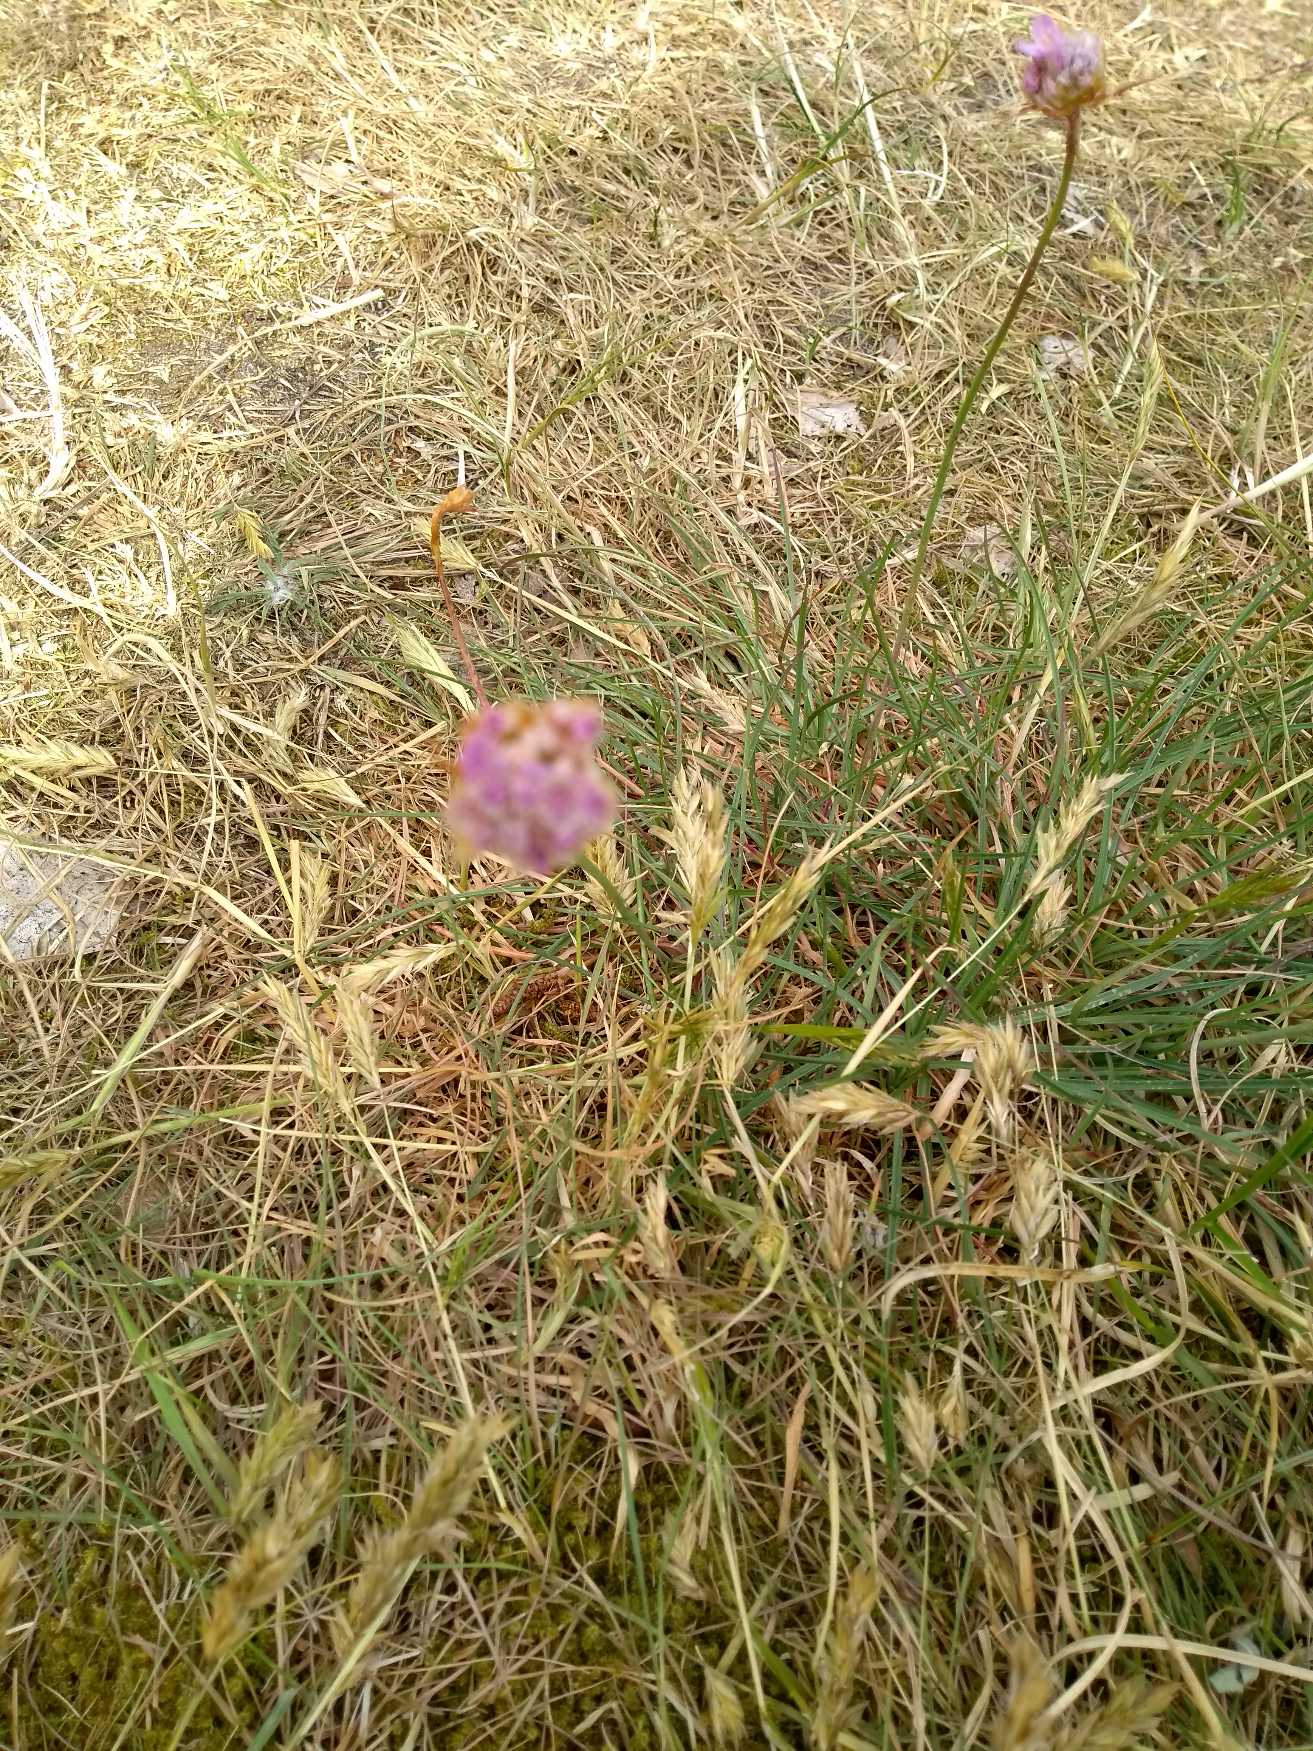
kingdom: Plantae
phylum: Tracheophyta
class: Magnoliopsida
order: Caryophyllales
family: Plumbaginaceae
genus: Armeria
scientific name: Armeria maritima
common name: Engelskgræs
